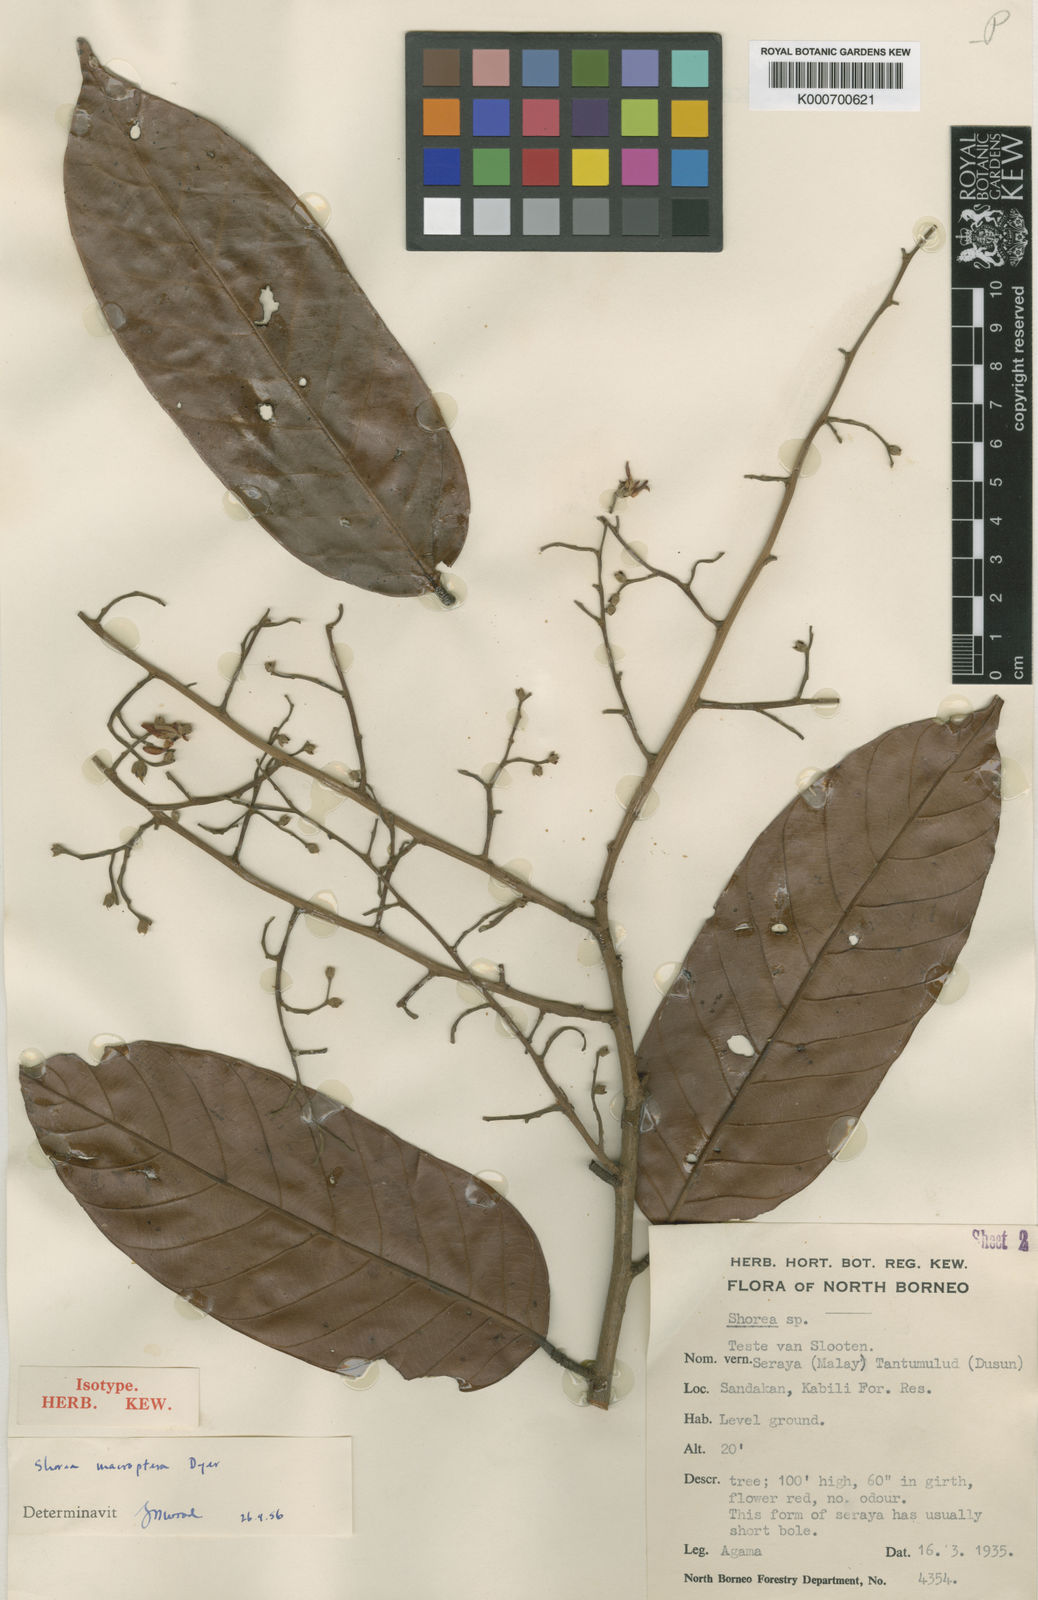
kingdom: Plantae
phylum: Tracheophyta
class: Magnoliopsida
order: Malvales
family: Dipterocarpaceae
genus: Shorea
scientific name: Shorea macroptera
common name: Light red meranti
